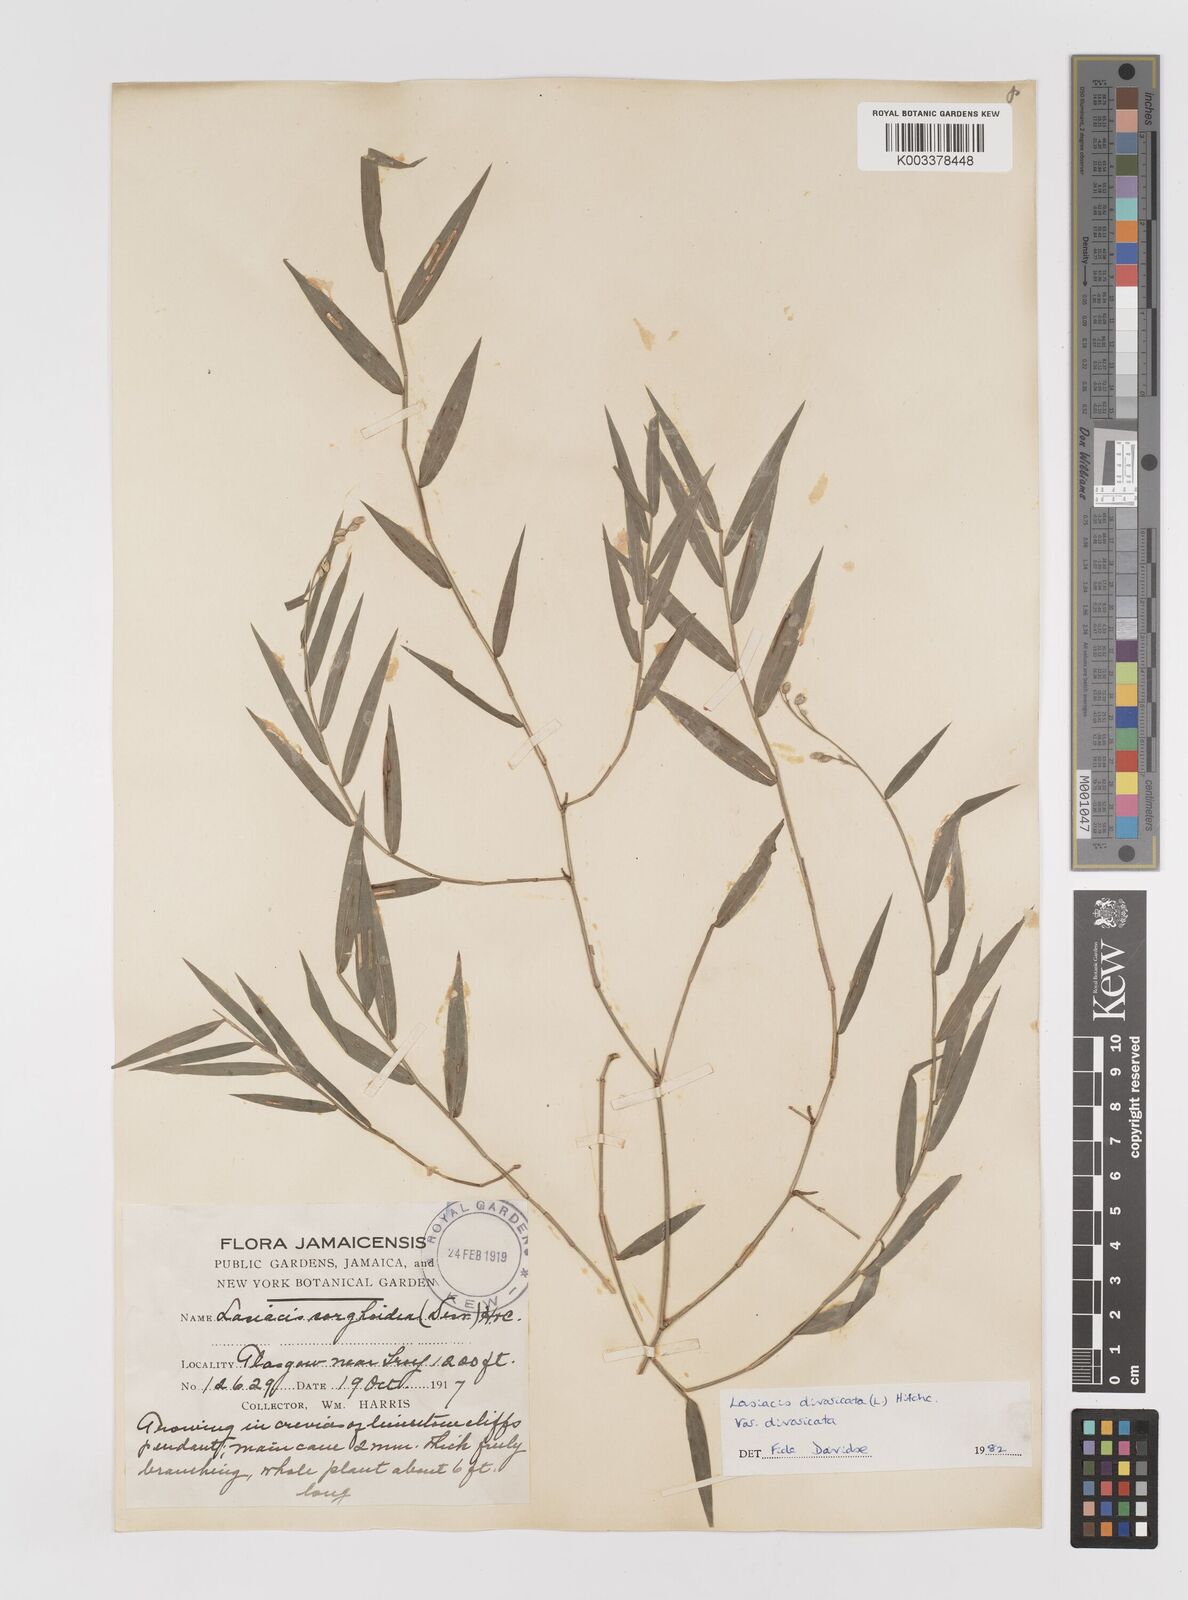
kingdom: Plantae
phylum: Tracheophyta
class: Liliopsida
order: Poales
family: Poaceae
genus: Lasiacis
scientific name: Lasiacis divaricata
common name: Smallcane
